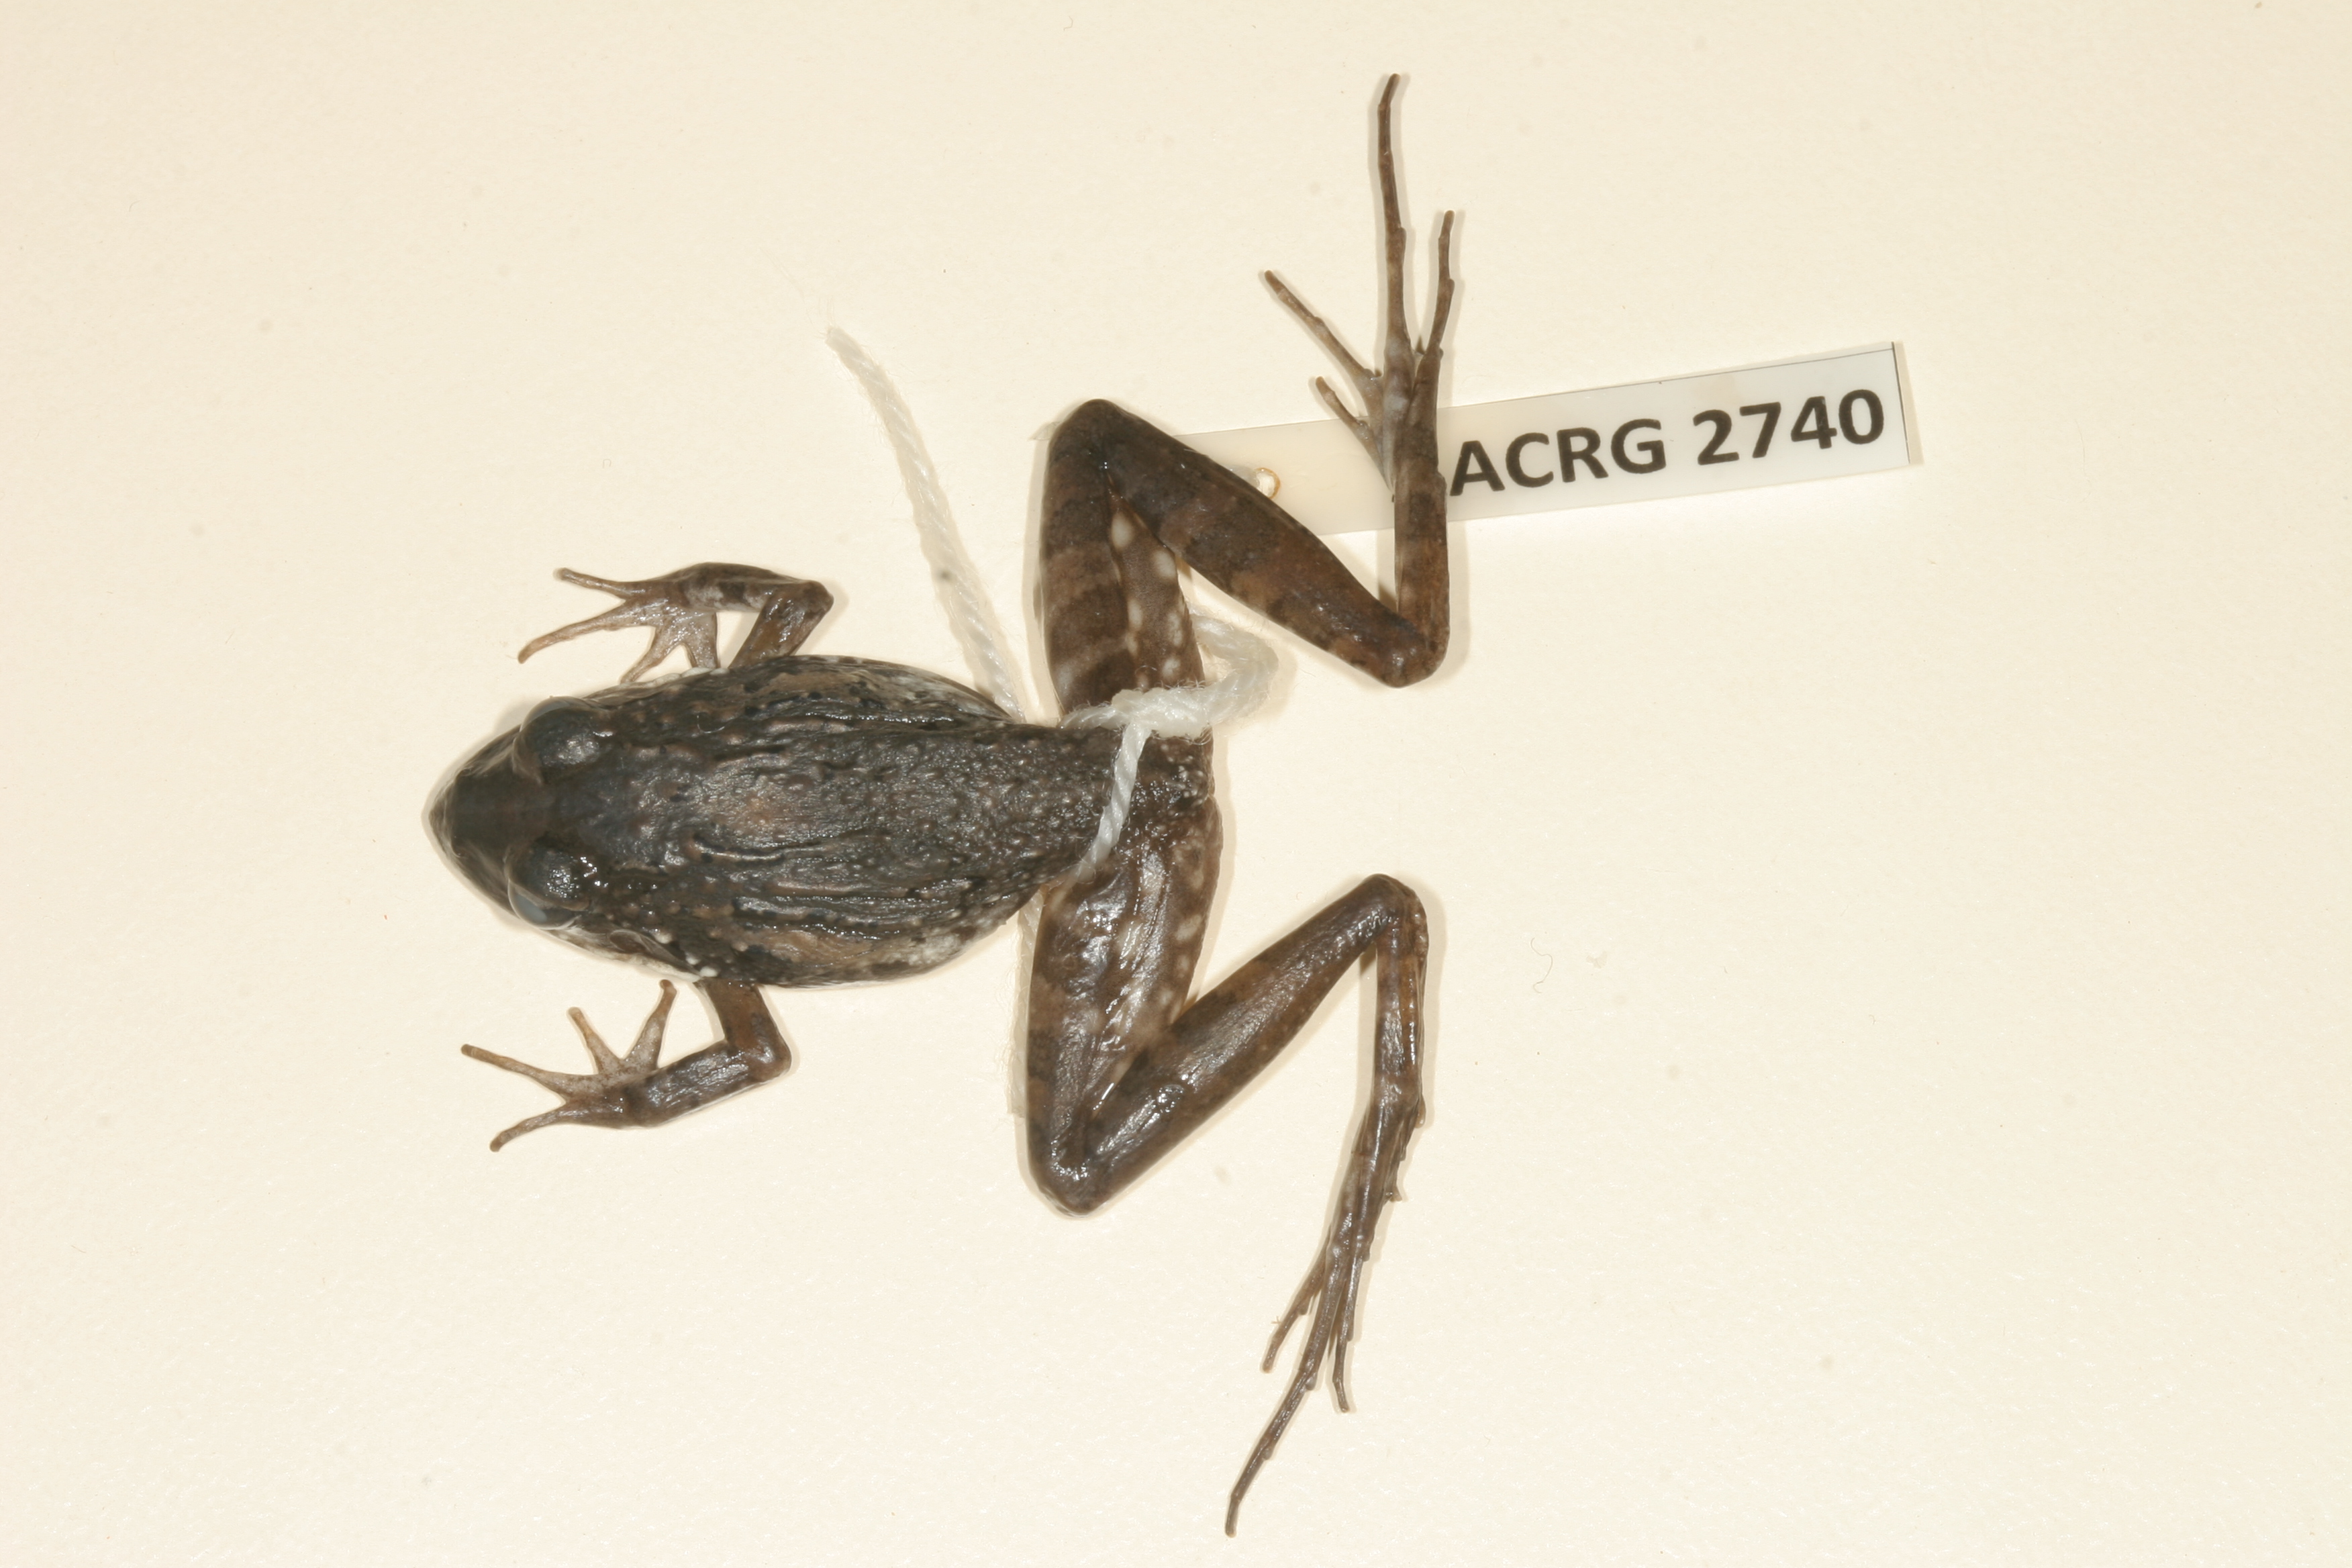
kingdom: Animalia
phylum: Chordata
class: Amphibia
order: Anura
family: Pyxicephalidae
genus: Strongylopus
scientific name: Strongylopus grayii
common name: Gray's stream frog
